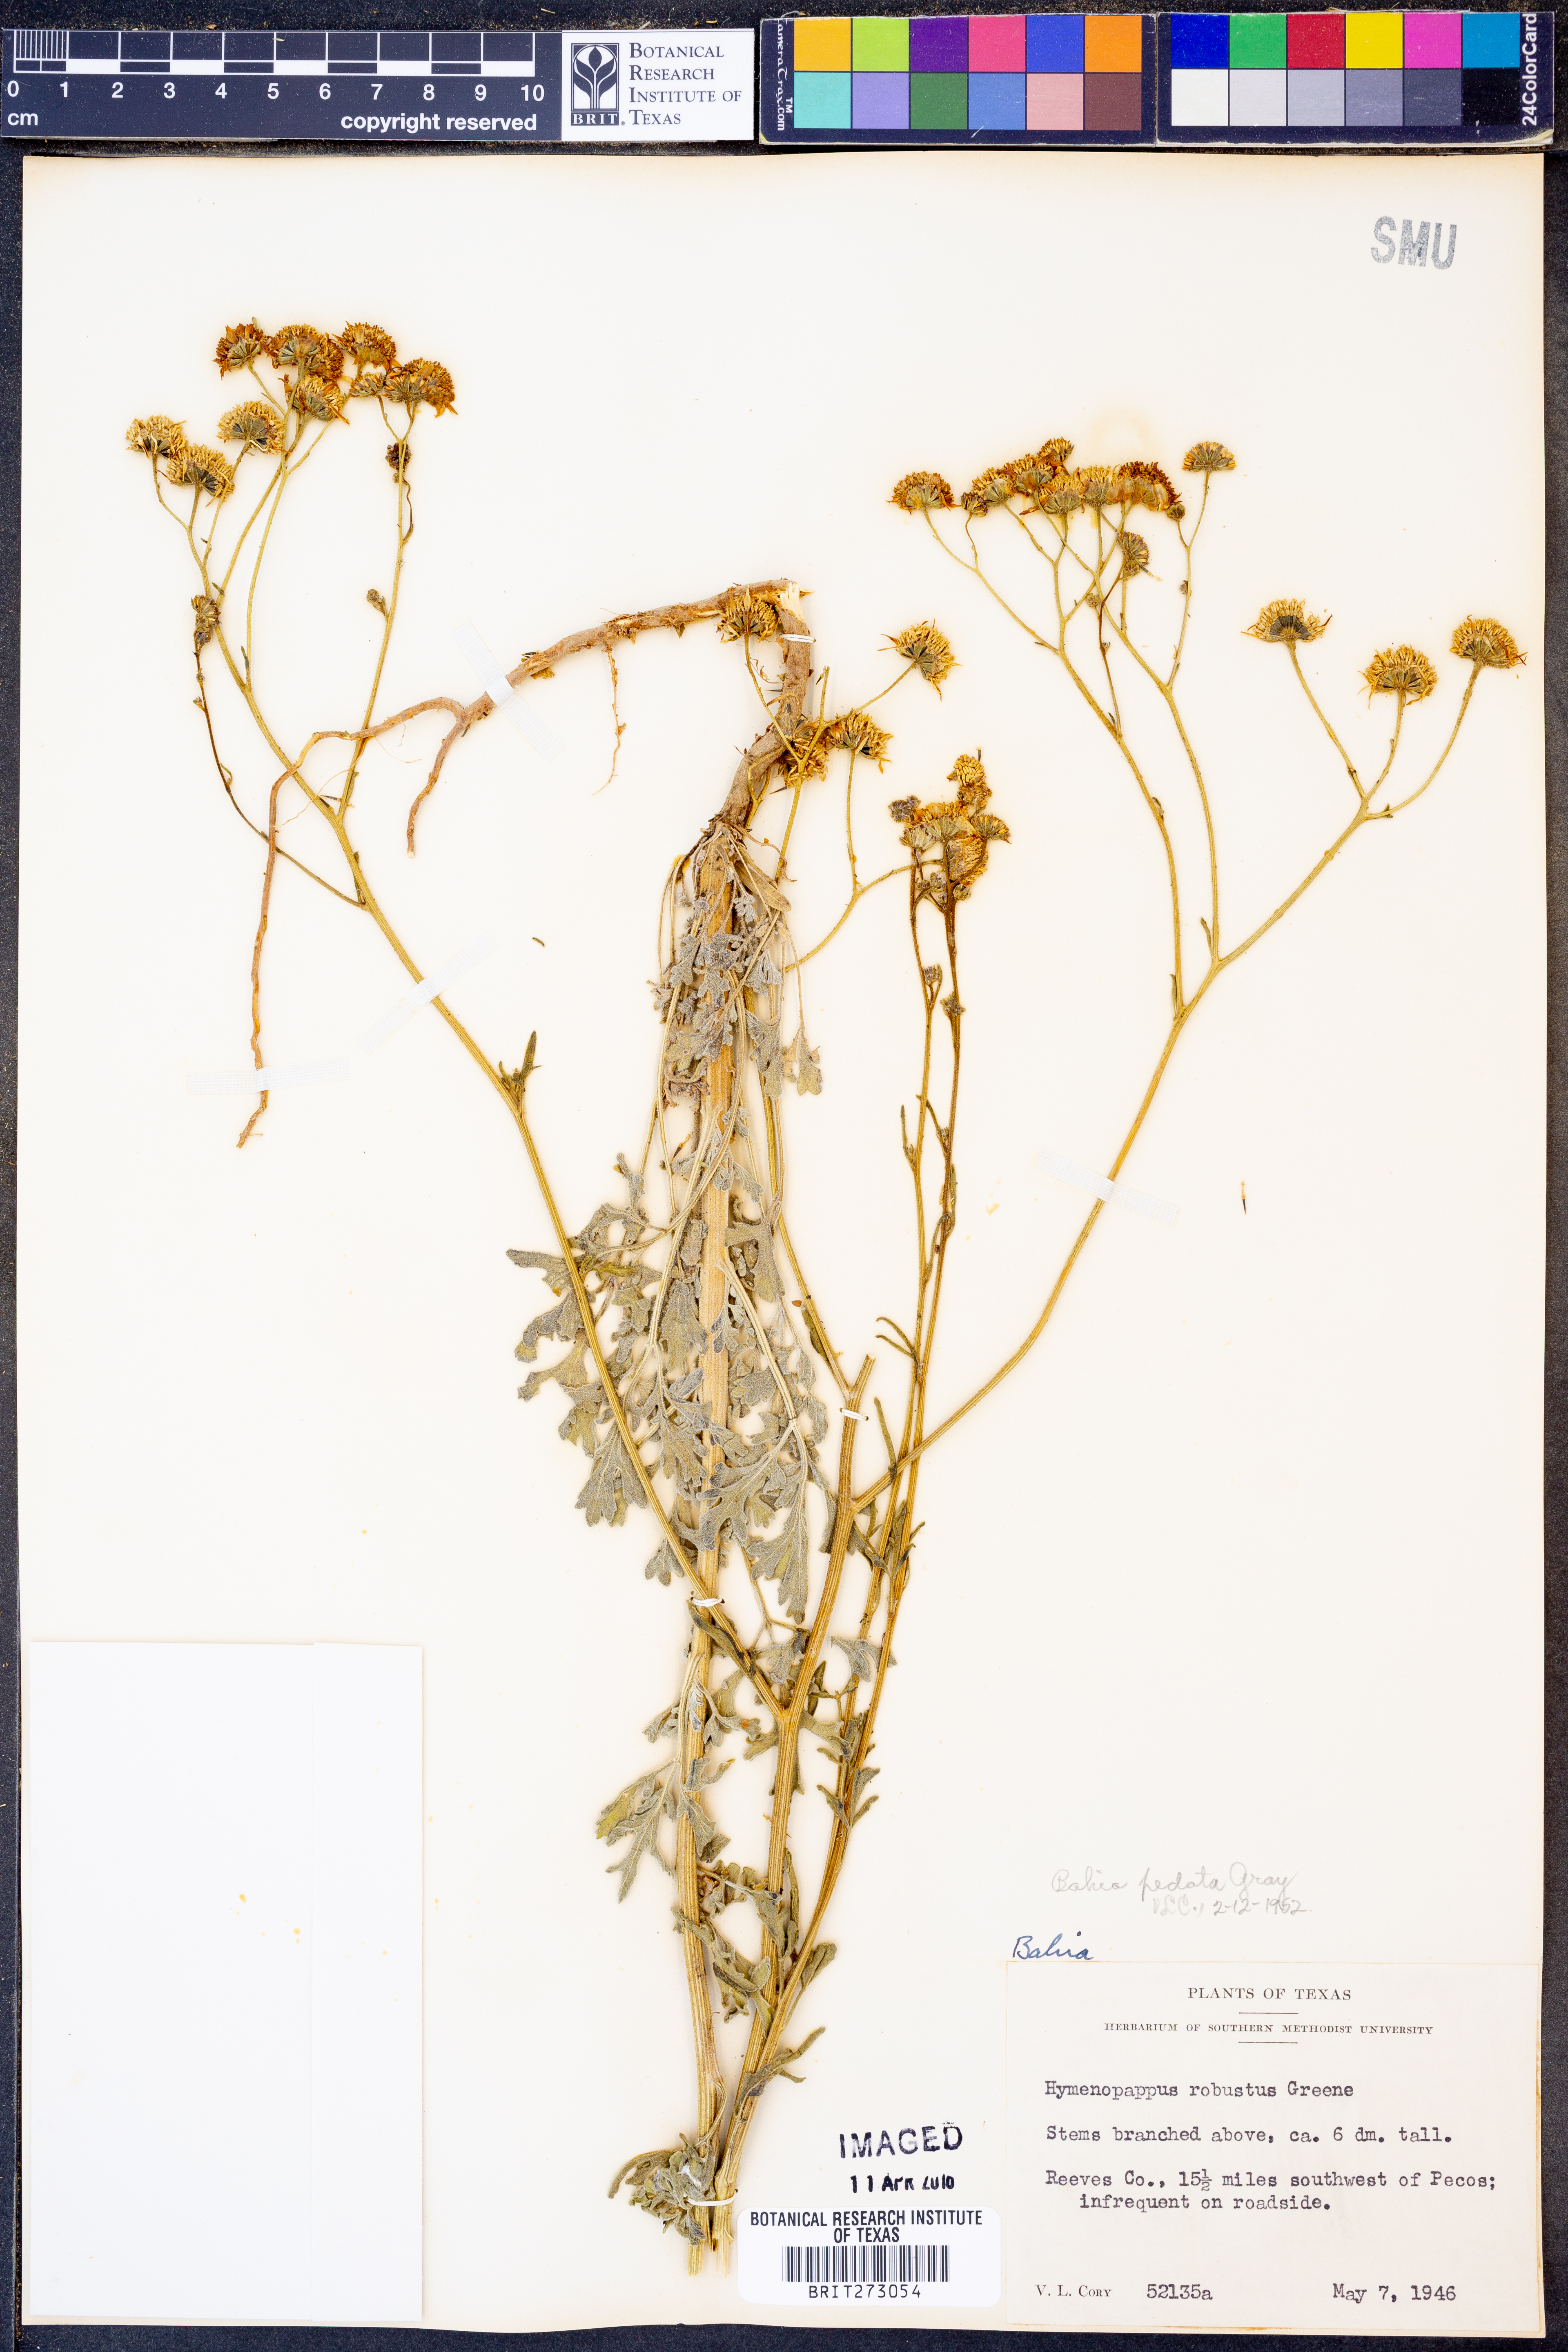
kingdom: Plantae
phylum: Tracheophyta
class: Magnoliopsida
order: Asterales
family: Asteraceae
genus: Hymenothrix
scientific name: Hymenothrix pedata
